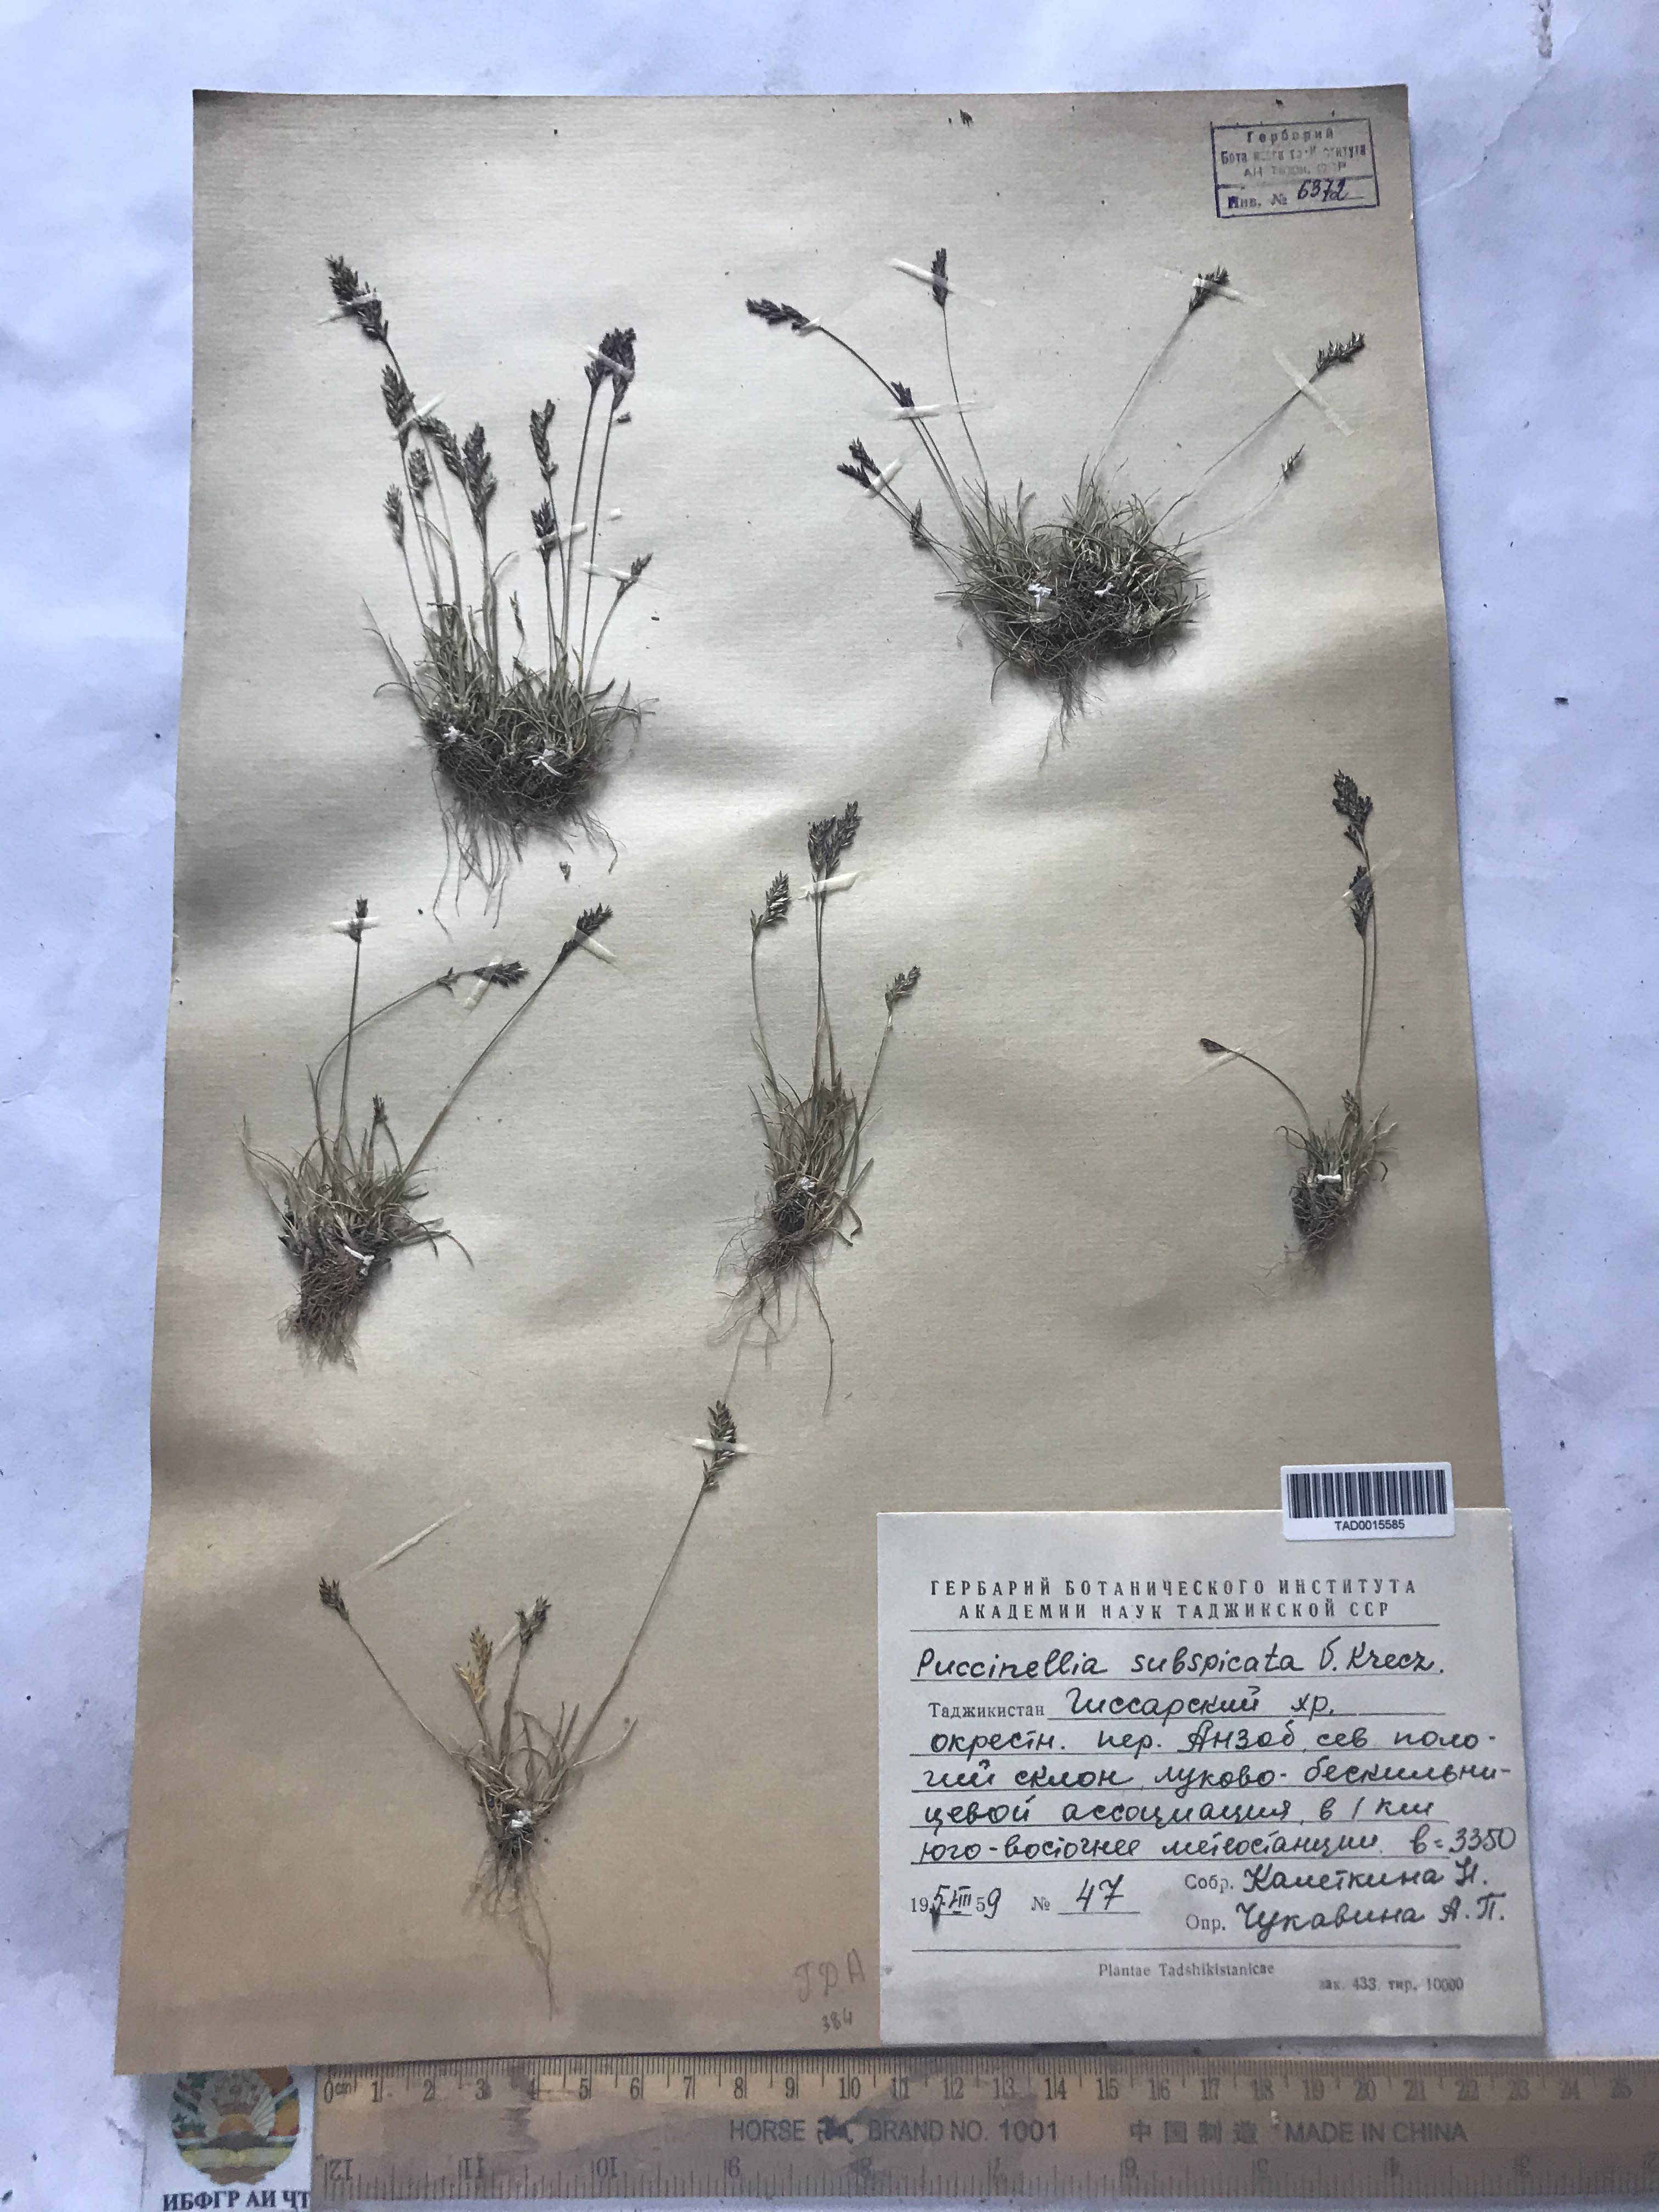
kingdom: Plantae
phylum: Tracheophyta
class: Liliopsida
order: Poales
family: Poaceae
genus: Puccinellia
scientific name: Puccinellia subspicata
